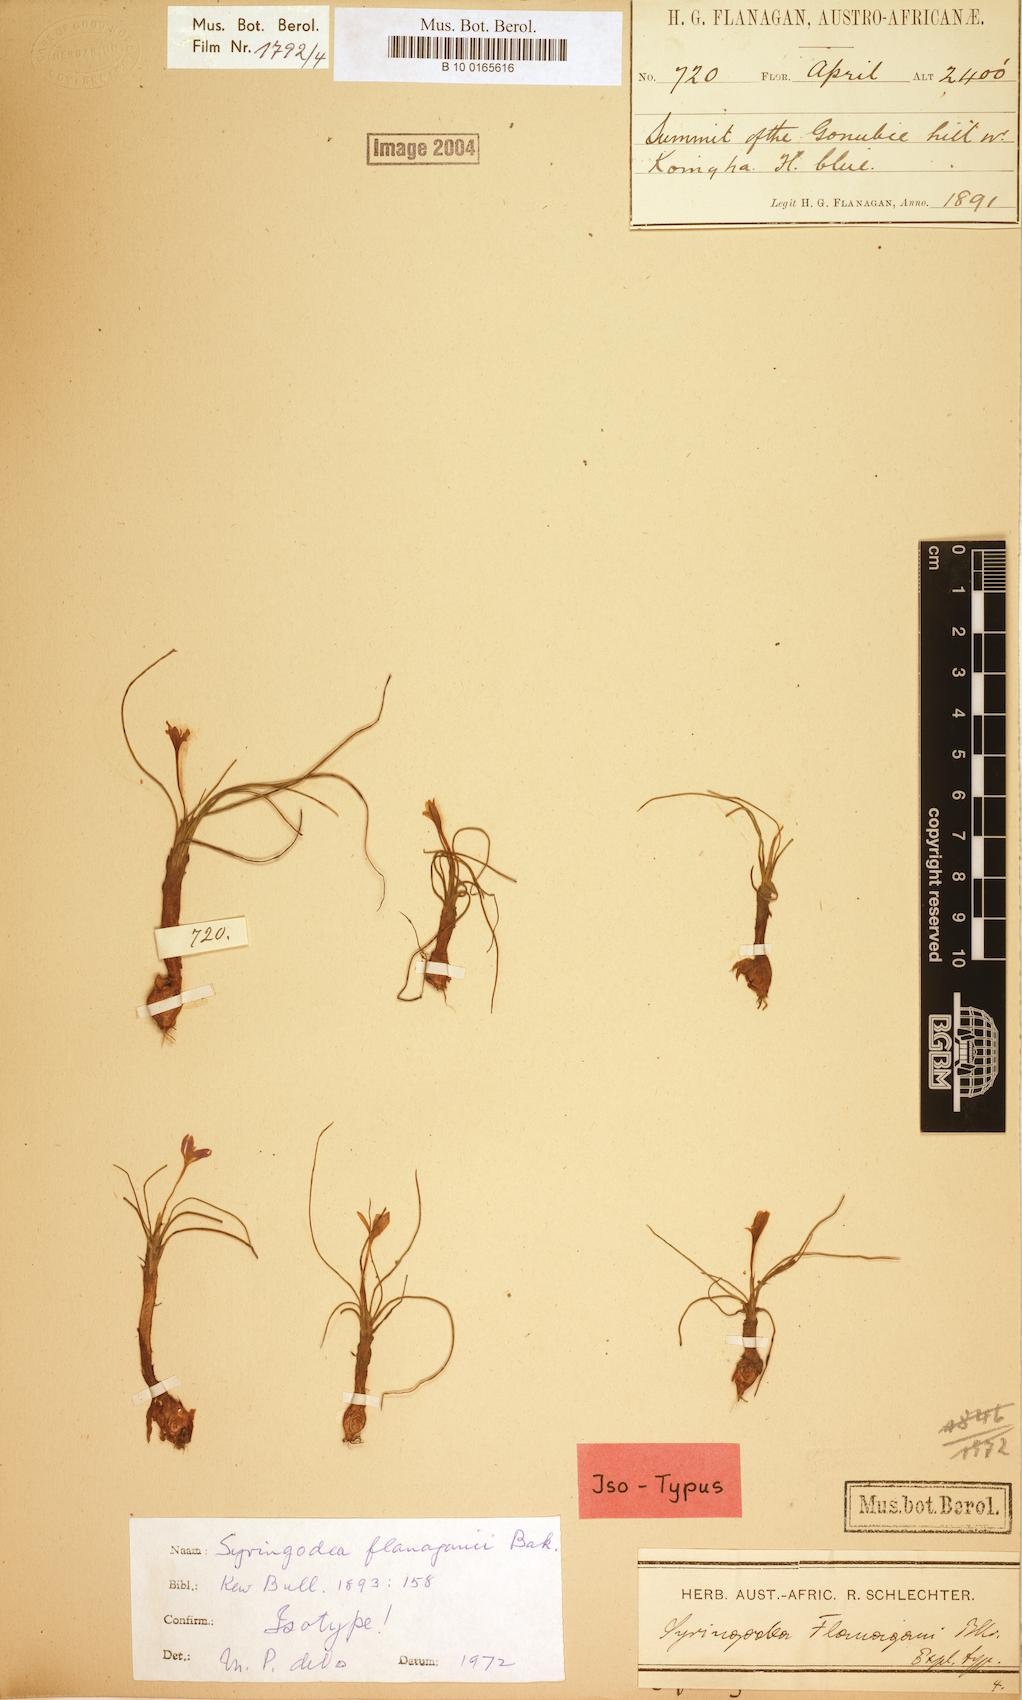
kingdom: Plantae
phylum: Tracheophyta
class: Liliopsida
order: Asparagales
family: Iridaceae
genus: Syringodea
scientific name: Syringodea flanaganii
